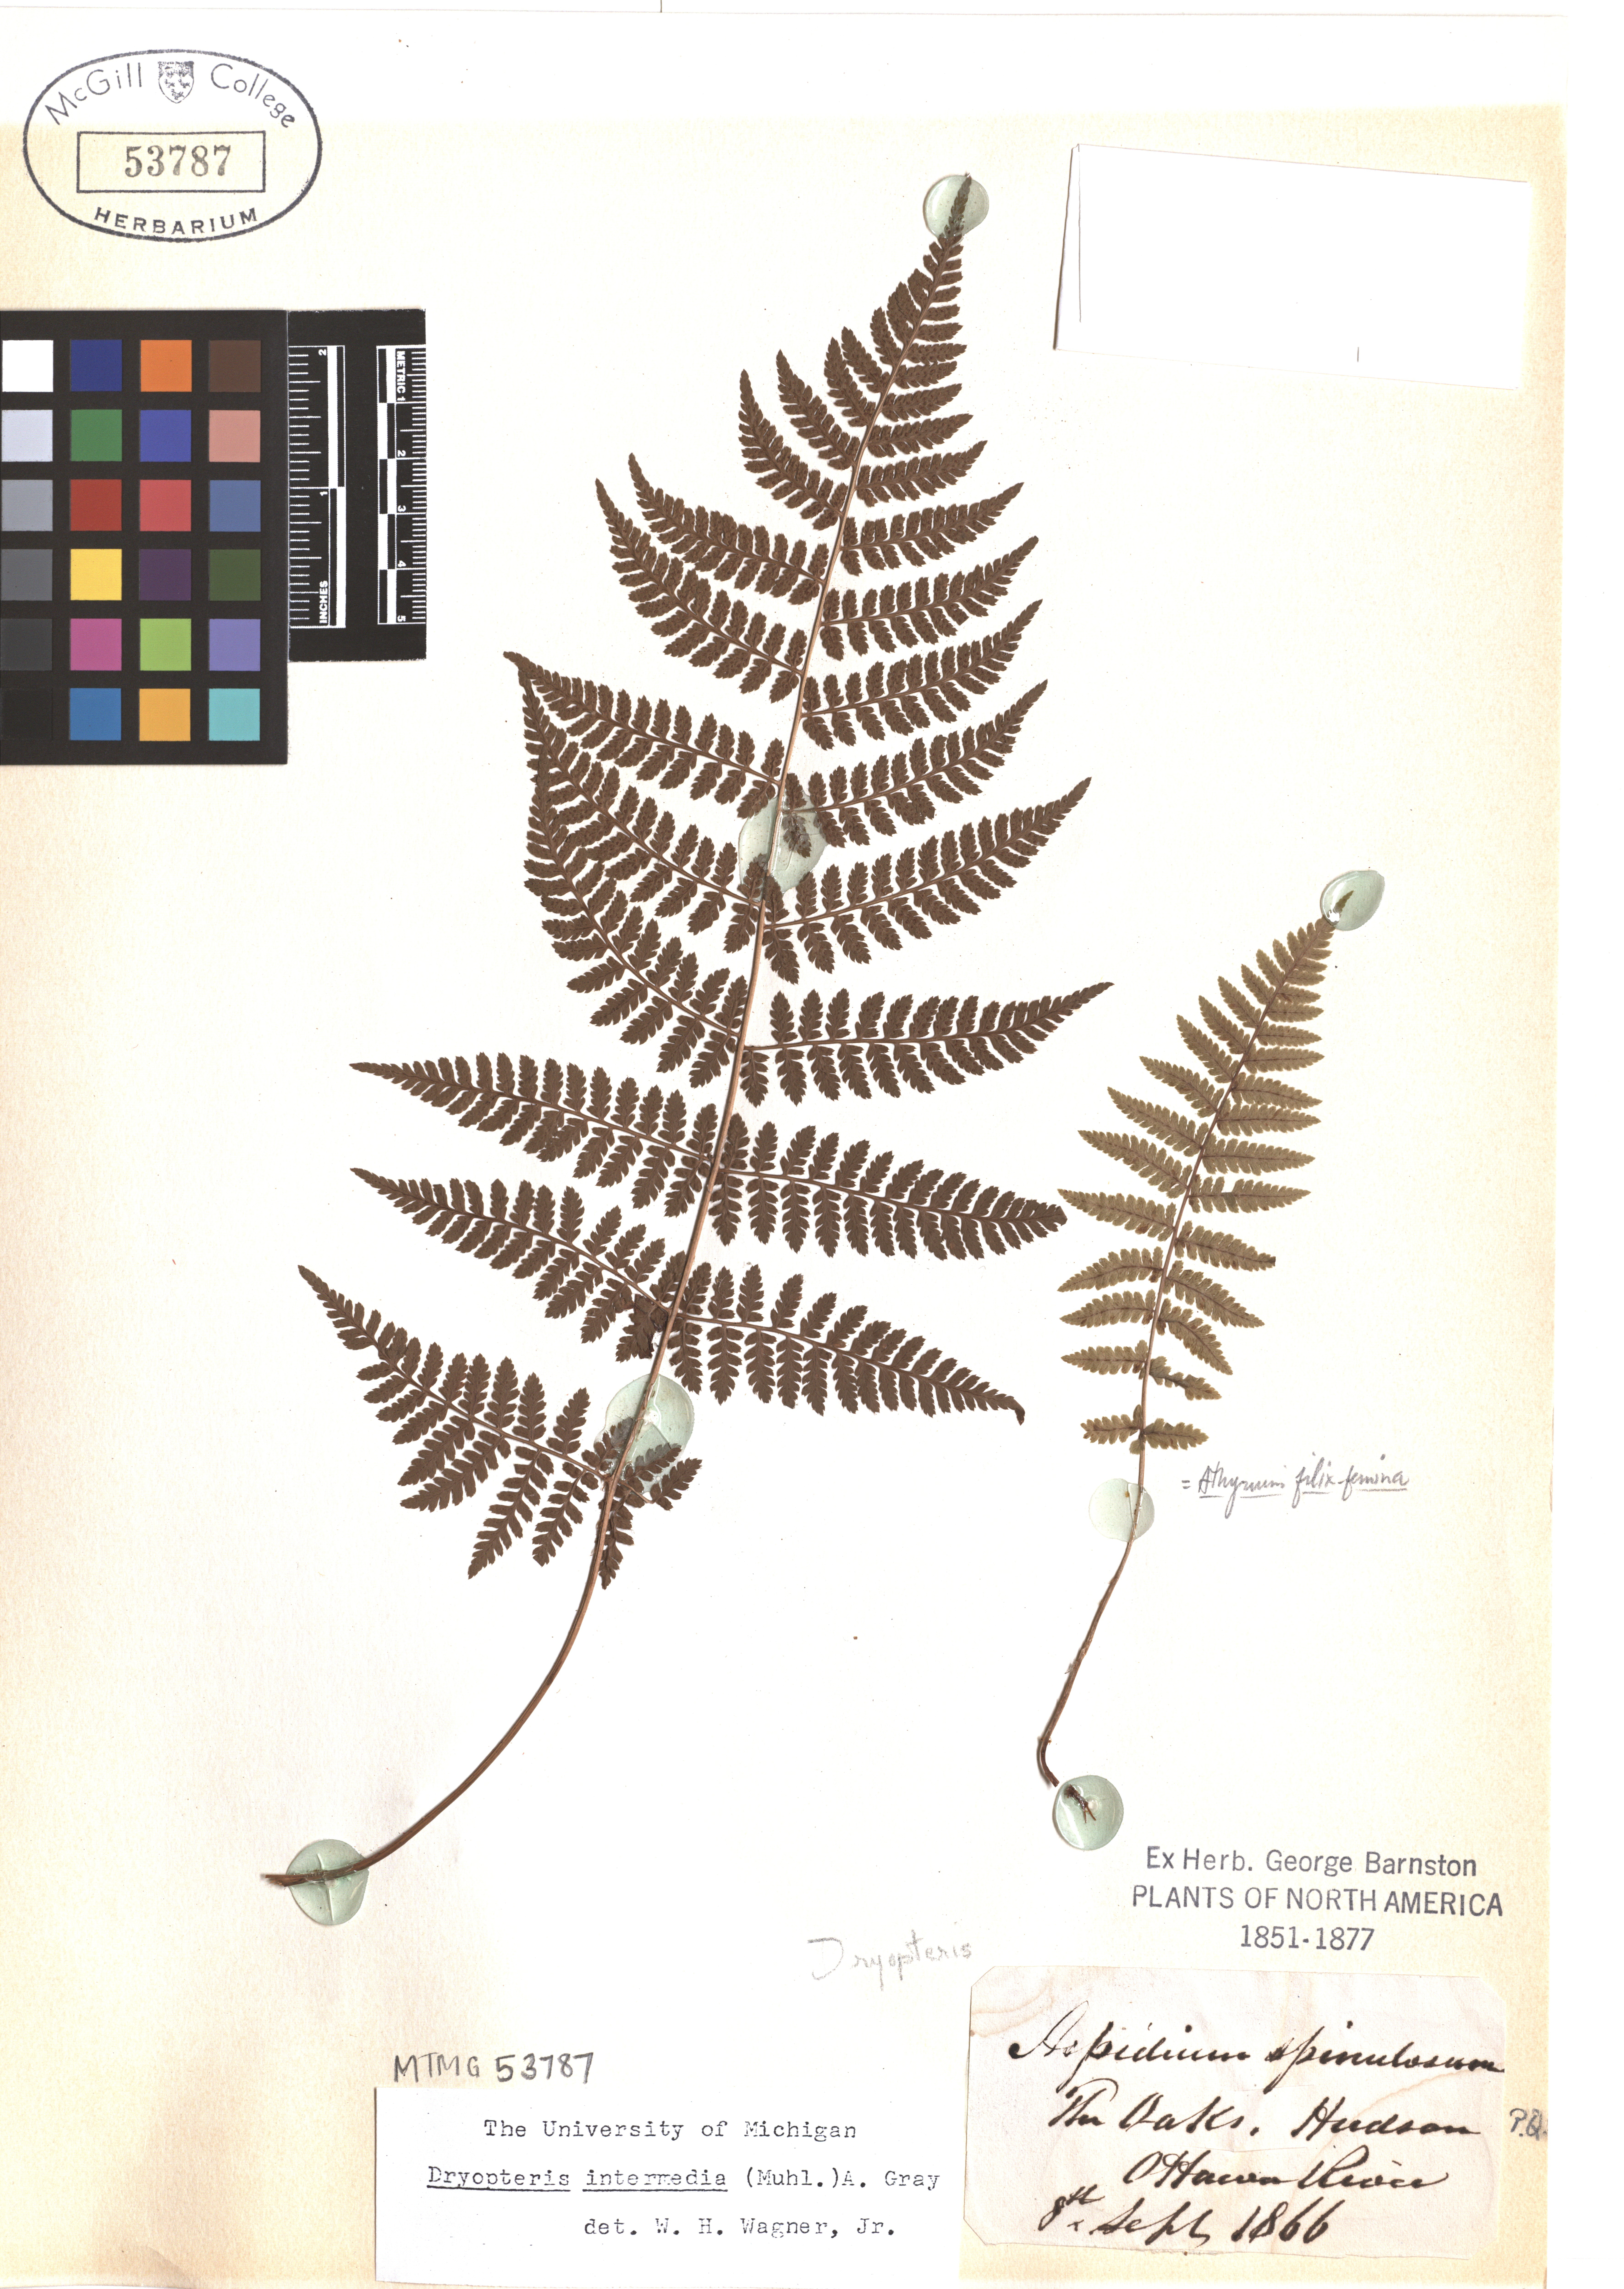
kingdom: Plantae
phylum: Tracheophyta
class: Polypodiopsida
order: Polypodiales
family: Dryopteridaceae
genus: Dryopteris
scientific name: Dryopteris intermedia
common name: Evergreen wood fern
